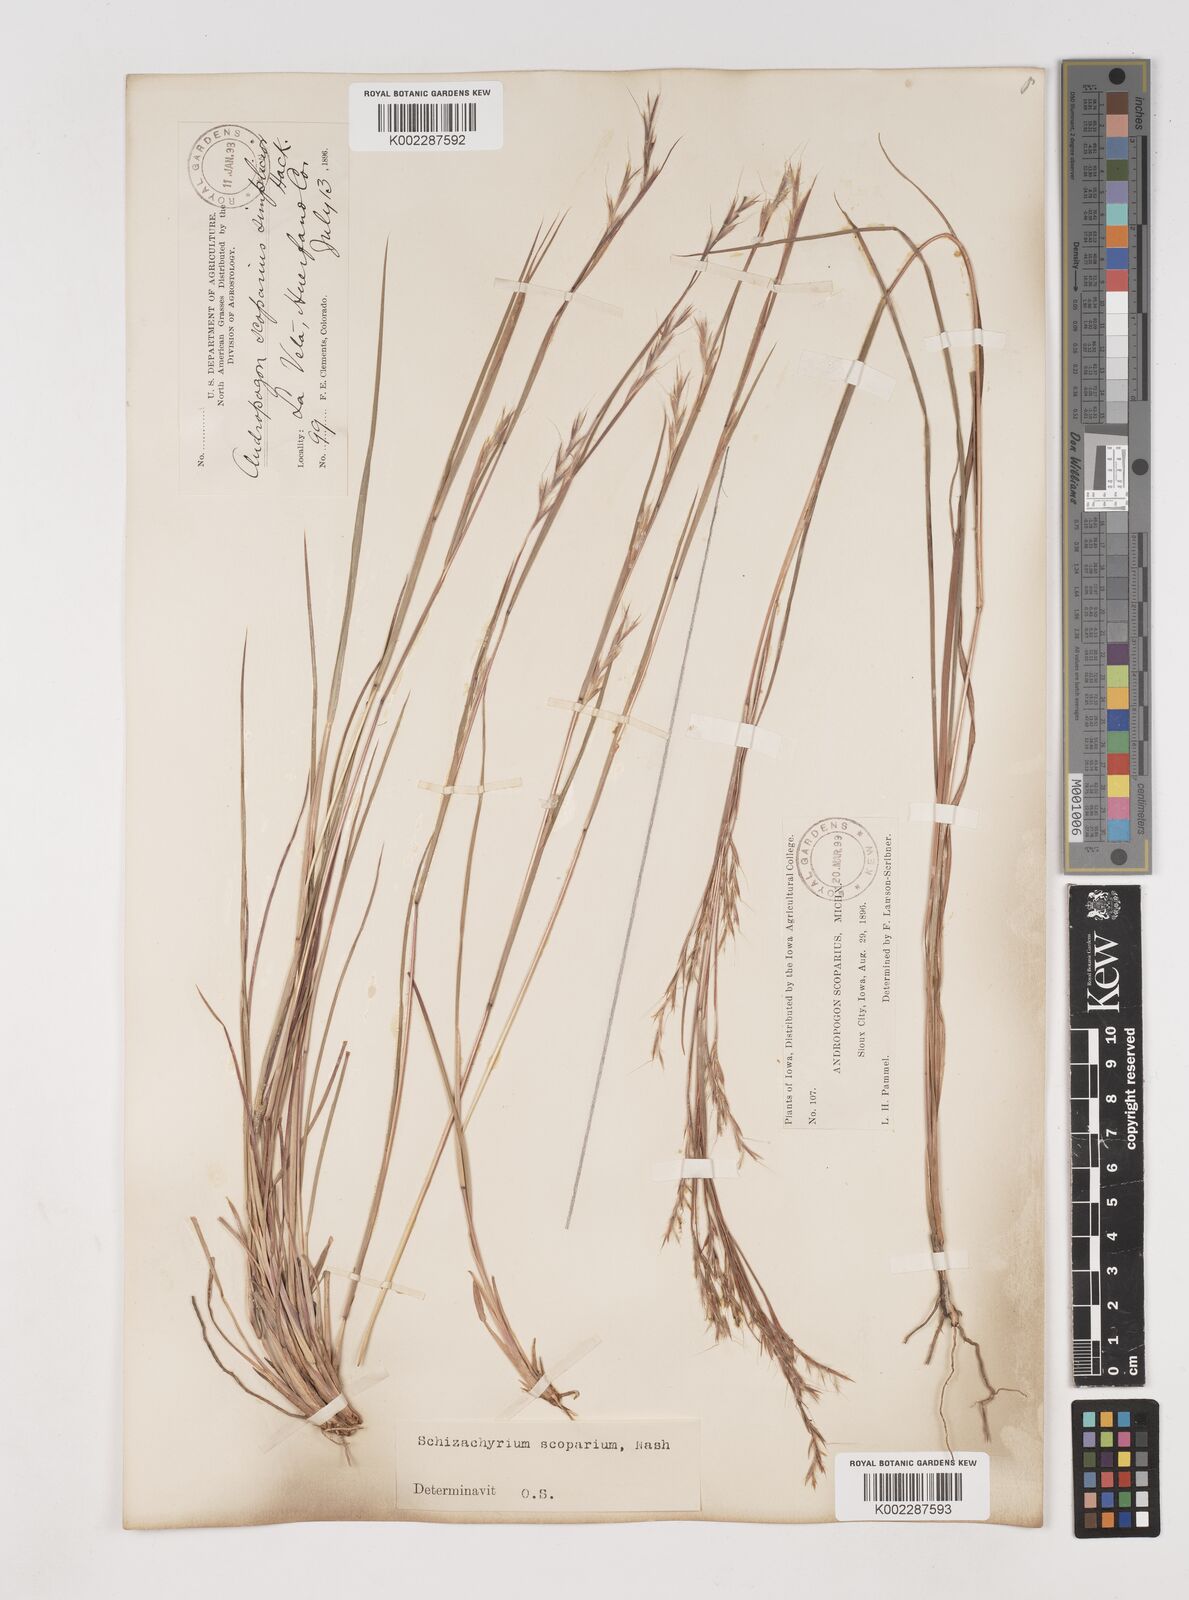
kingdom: Plantae
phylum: Tracheophyta
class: Liliopsida
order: Poales
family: Poaceae
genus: Schizachyrium
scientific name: Schizachyrium scoparium
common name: Little bluestem
